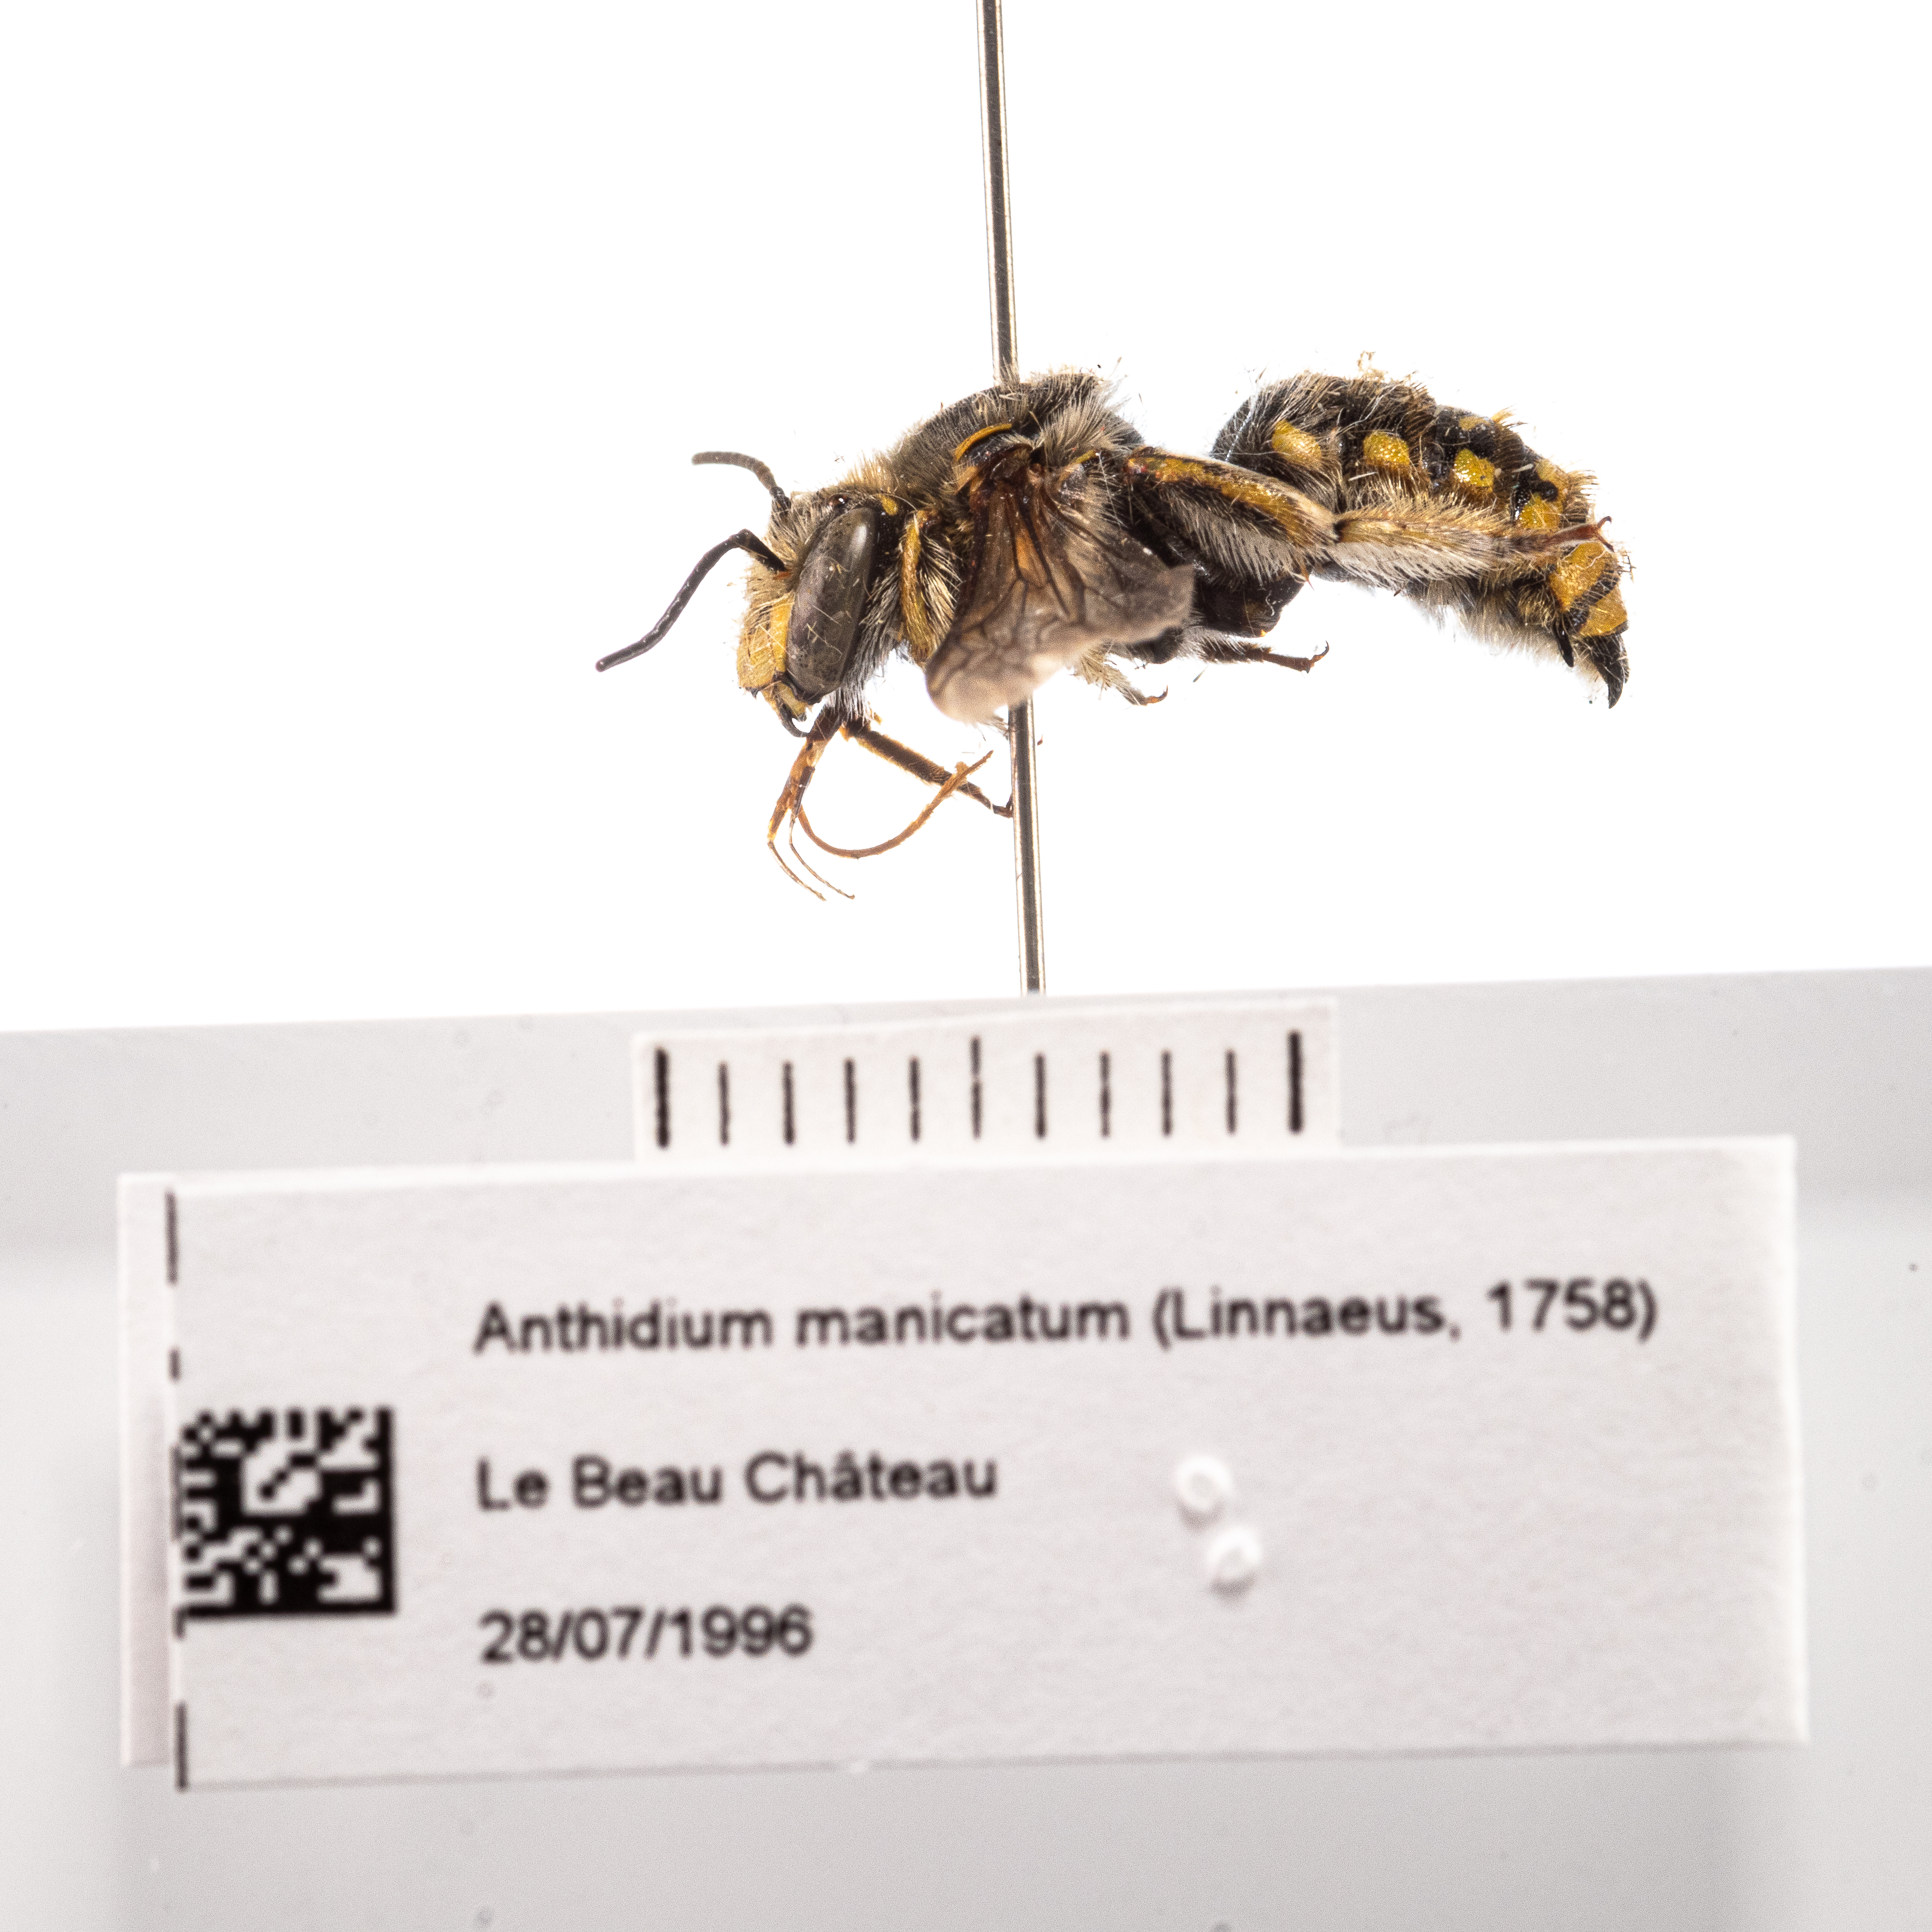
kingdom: Animalia
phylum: Arthropoda
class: Insecta
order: Hymenoptera
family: Megachilidae
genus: Anthidium
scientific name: Anthidium manicatum
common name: Wool carder bee
